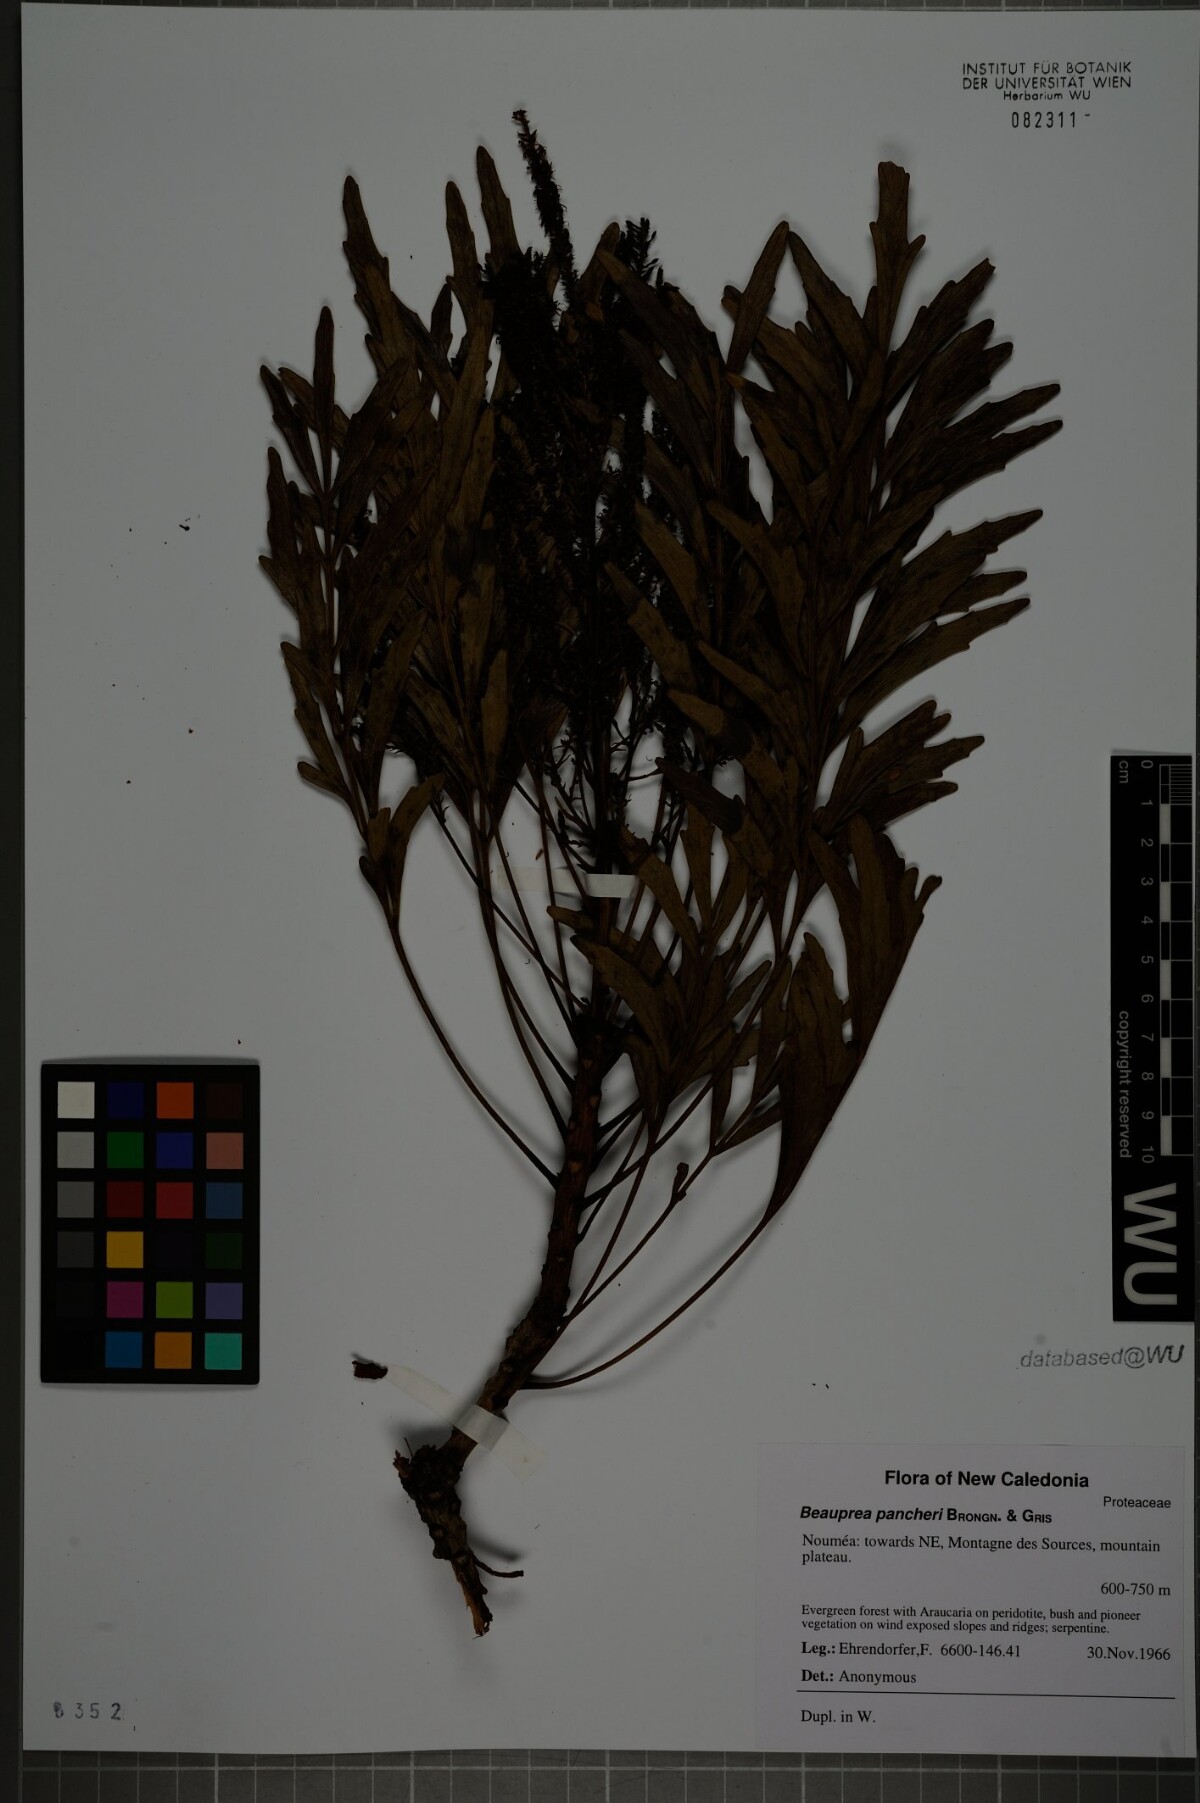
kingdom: Plantae
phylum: Tracheophyta
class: Magnoliopsida
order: Proteales
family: Proteaceae
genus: Beauprea
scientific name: Beauprea pancheri
